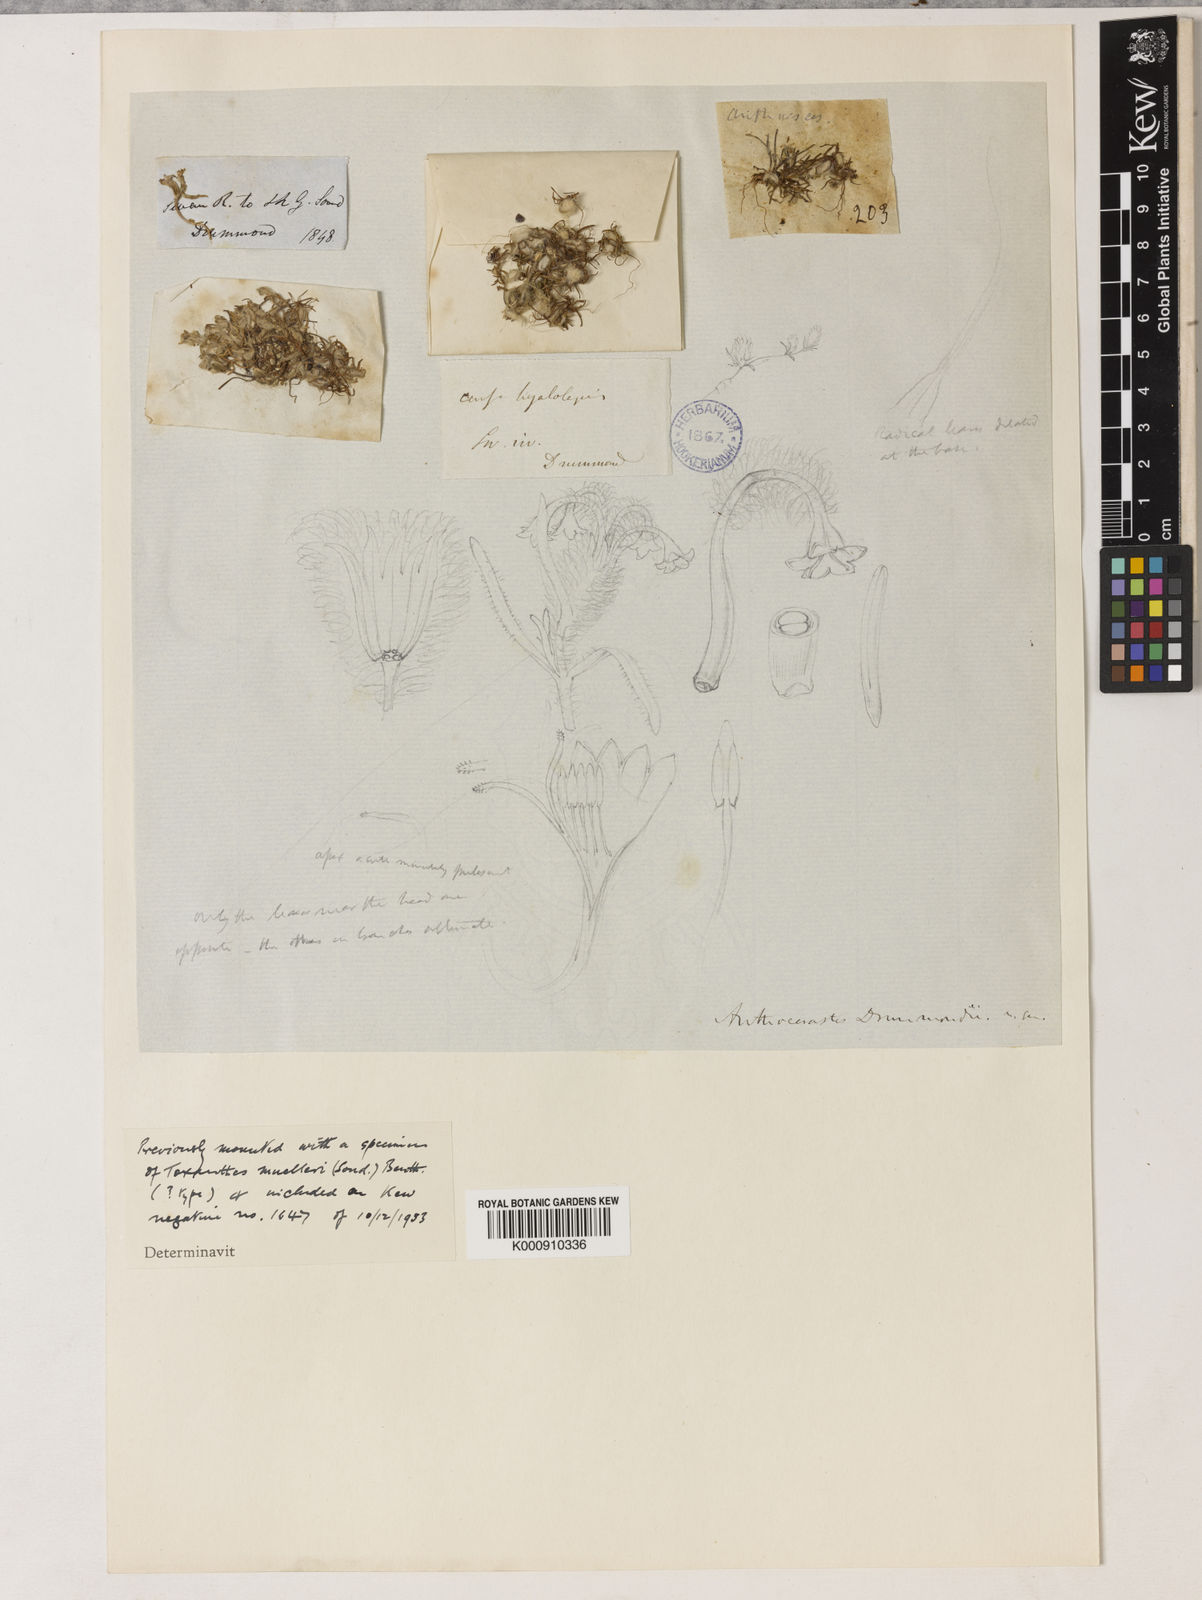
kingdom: Plantae
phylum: Tracheophyta
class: Magnoliopsida
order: Asterales
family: Asteraceae
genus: Millotia
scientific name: Millotia perpusilla
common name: Tiny bow-flower
